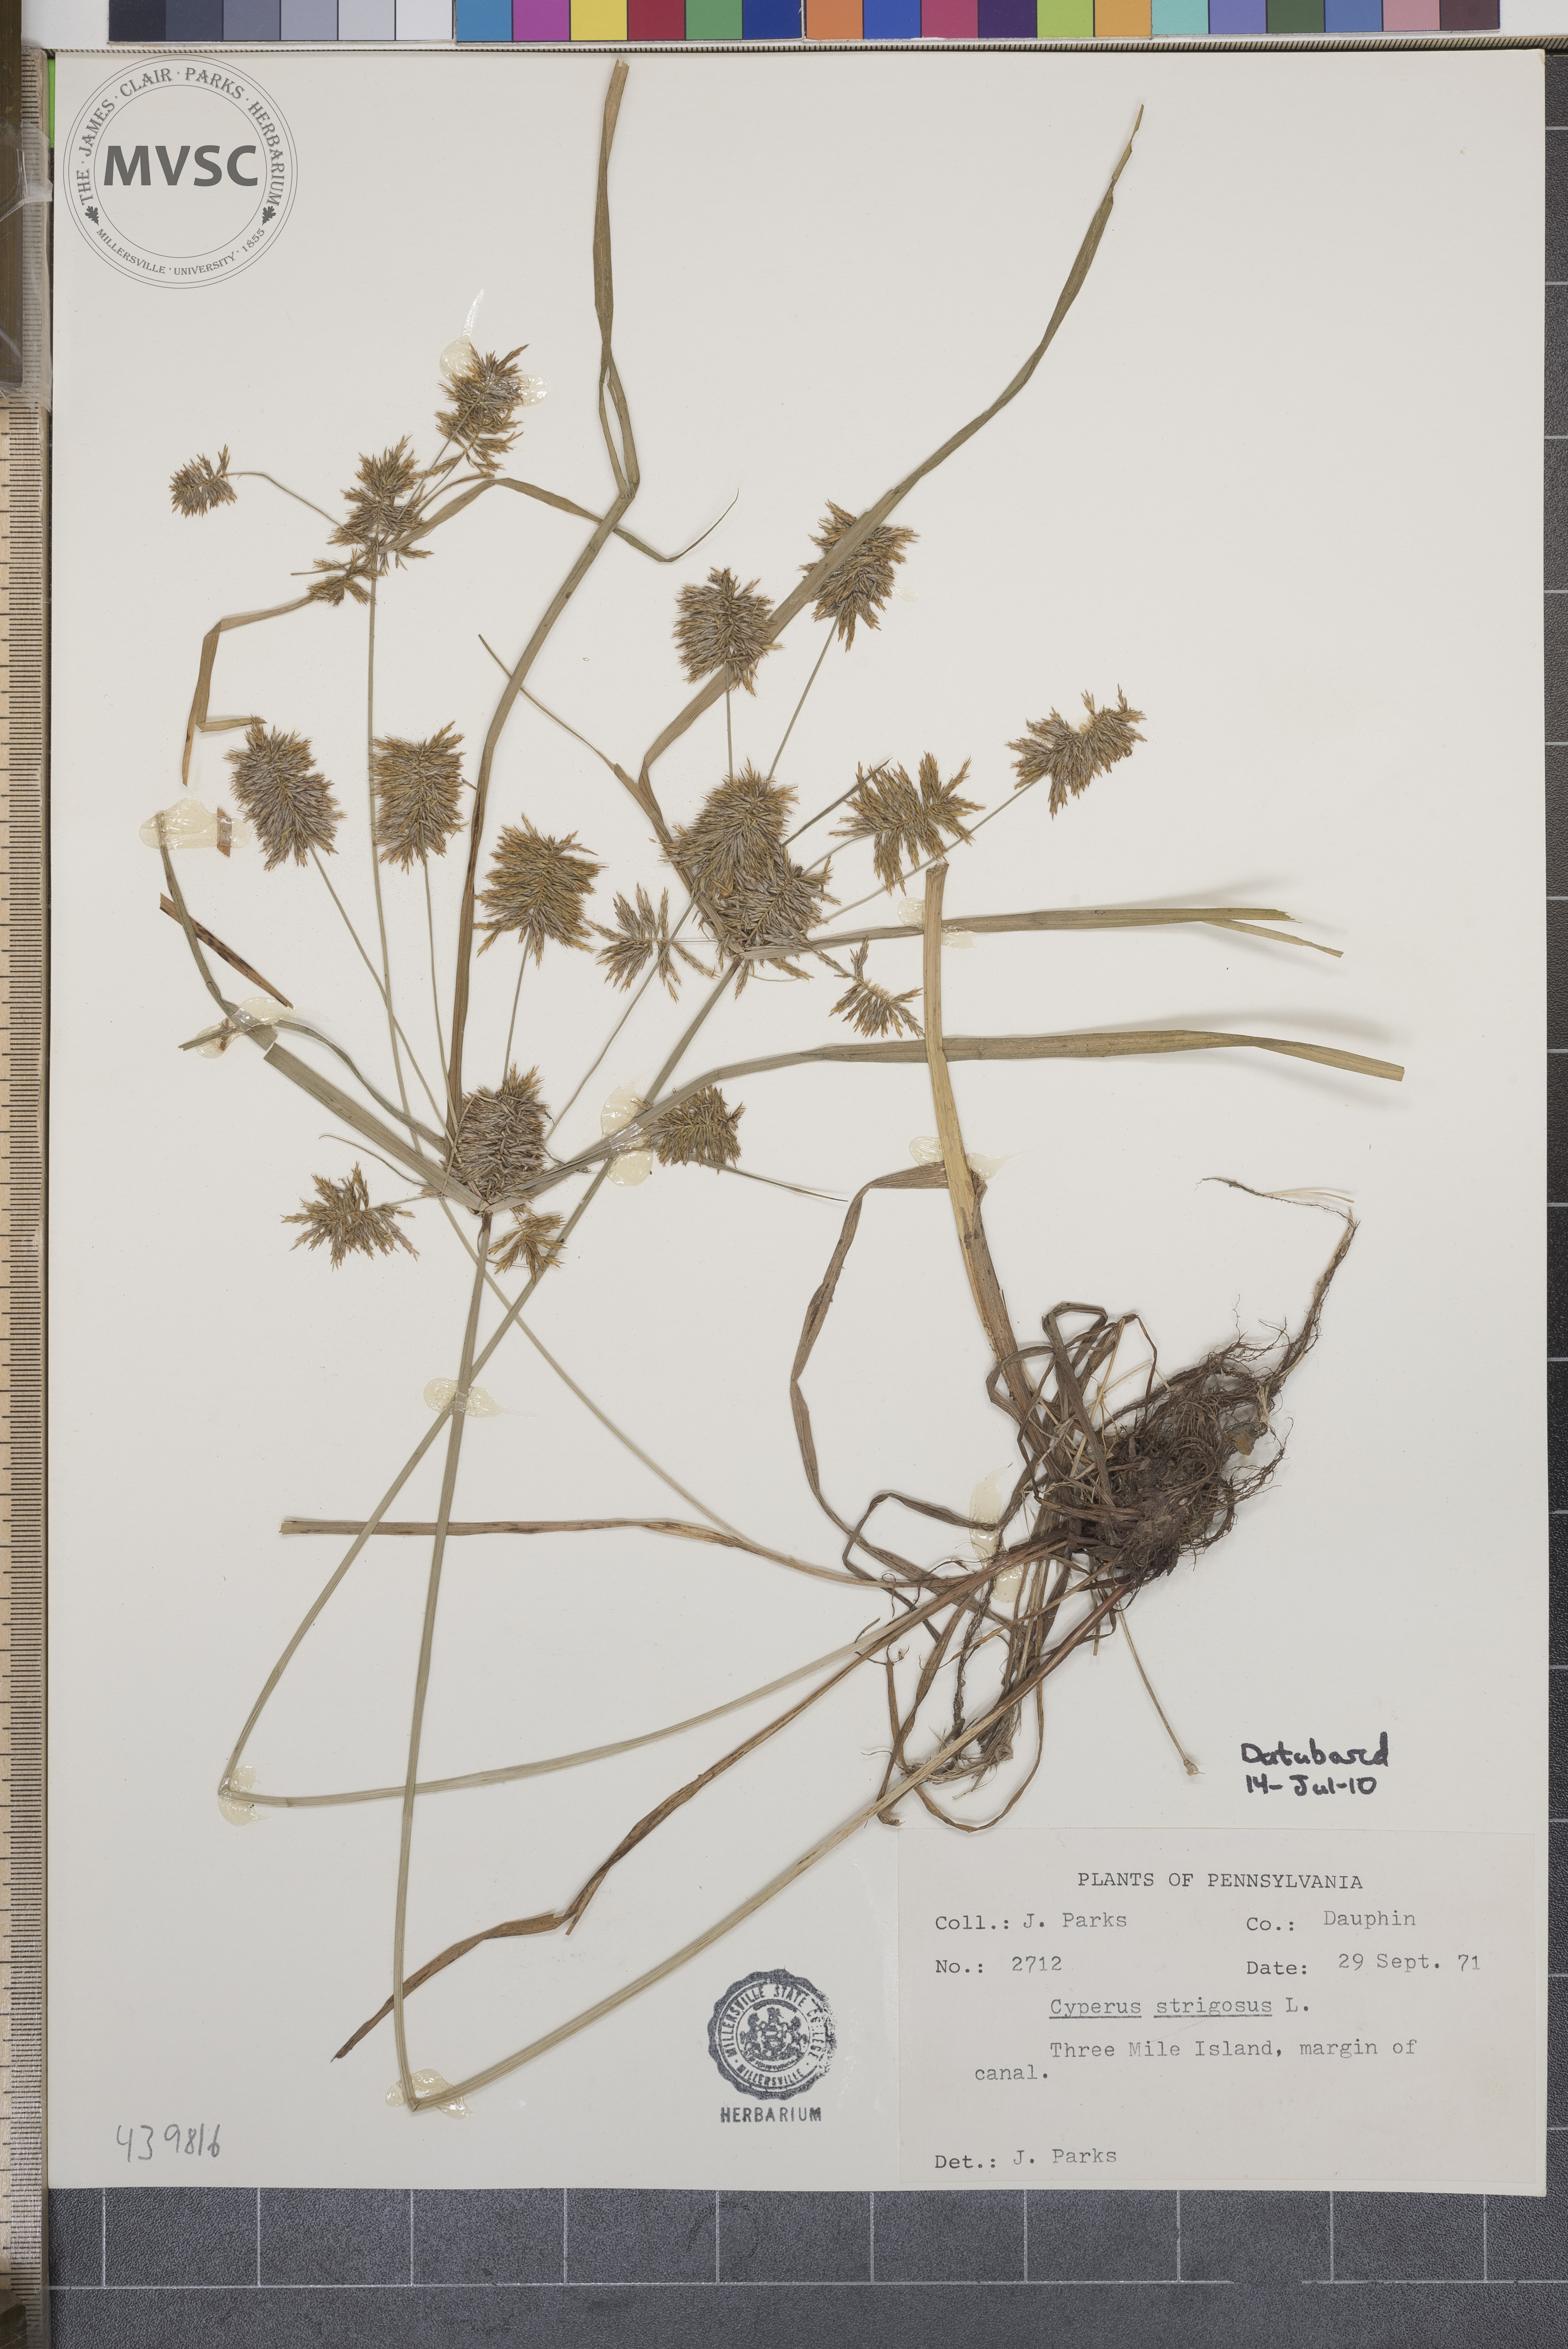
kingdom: Plantae
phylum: Tracheophyta
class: Liliopsida
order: Poales
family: Cyperaceae
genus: Cyperus
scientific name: Cyperus strigosus
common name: False nutsedge
